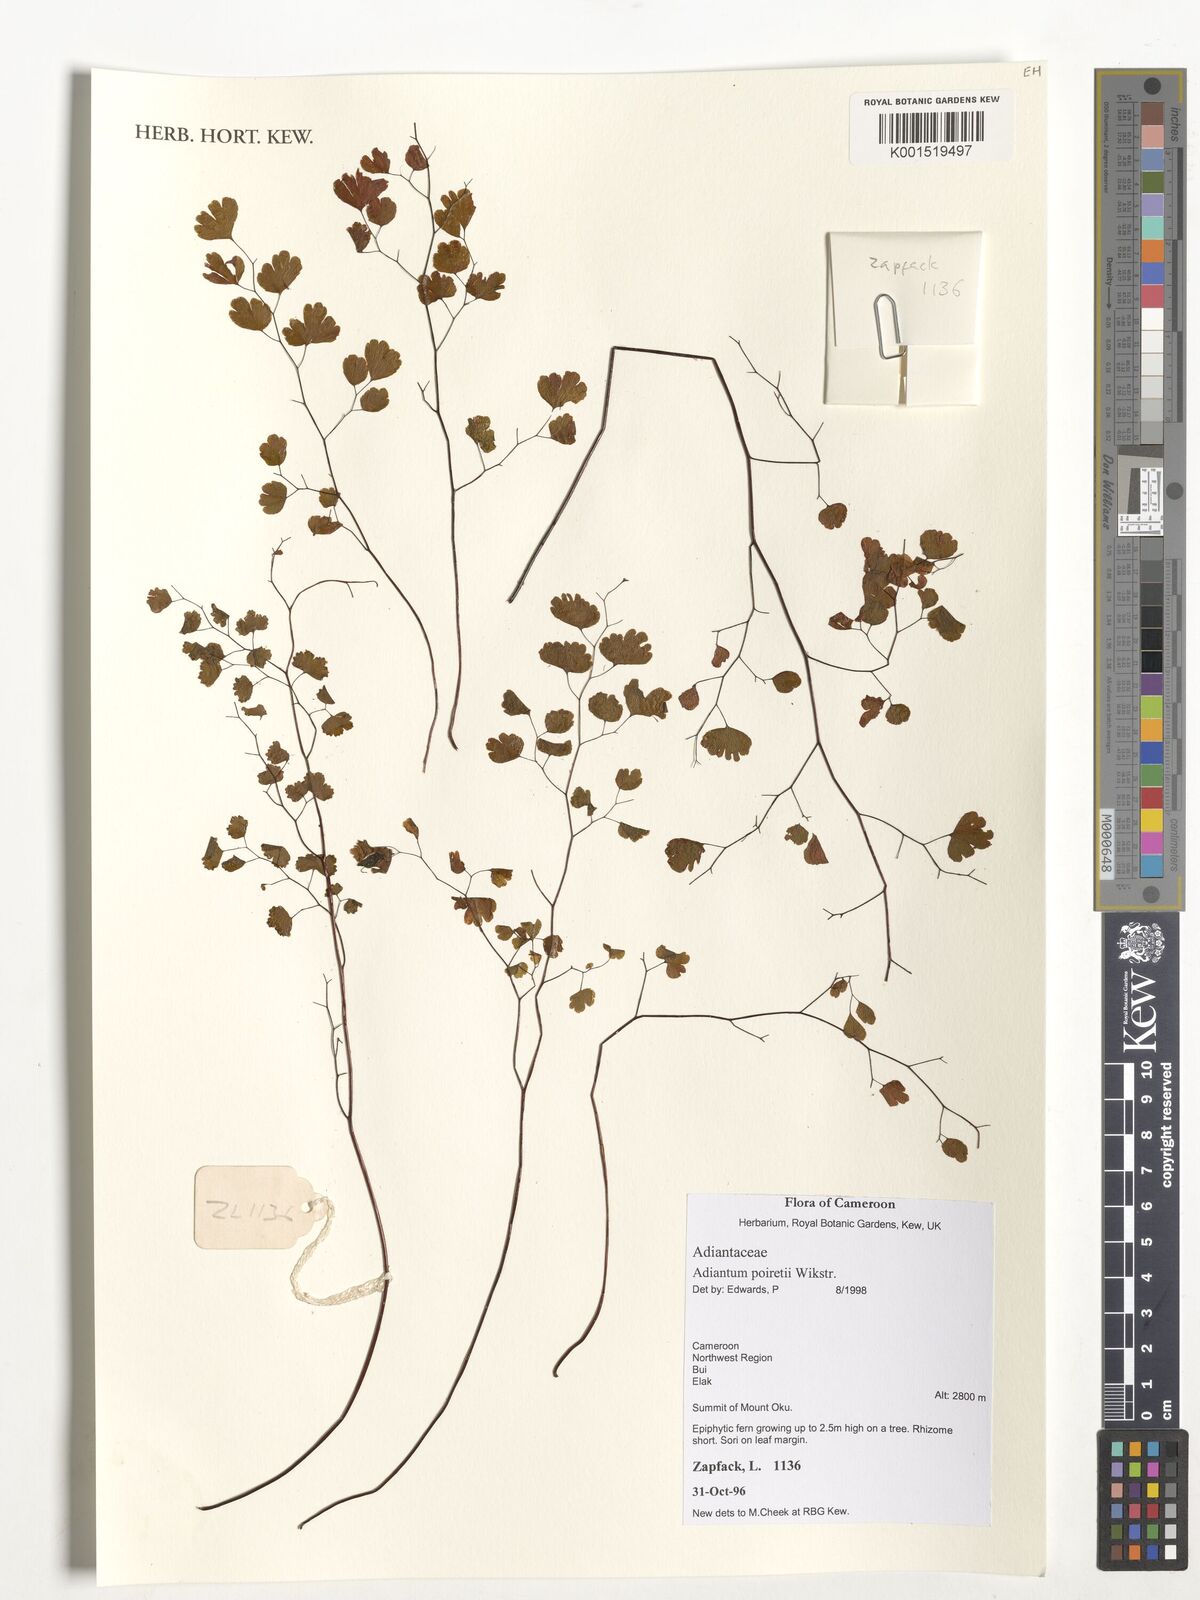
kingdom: Plantae
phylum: Tracheophyta
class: Polypodiopsida
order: Polypodiales
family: Pteridaceae
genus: Adiantum
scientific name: Adiantum poiretii
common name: Mexican maidenhair
